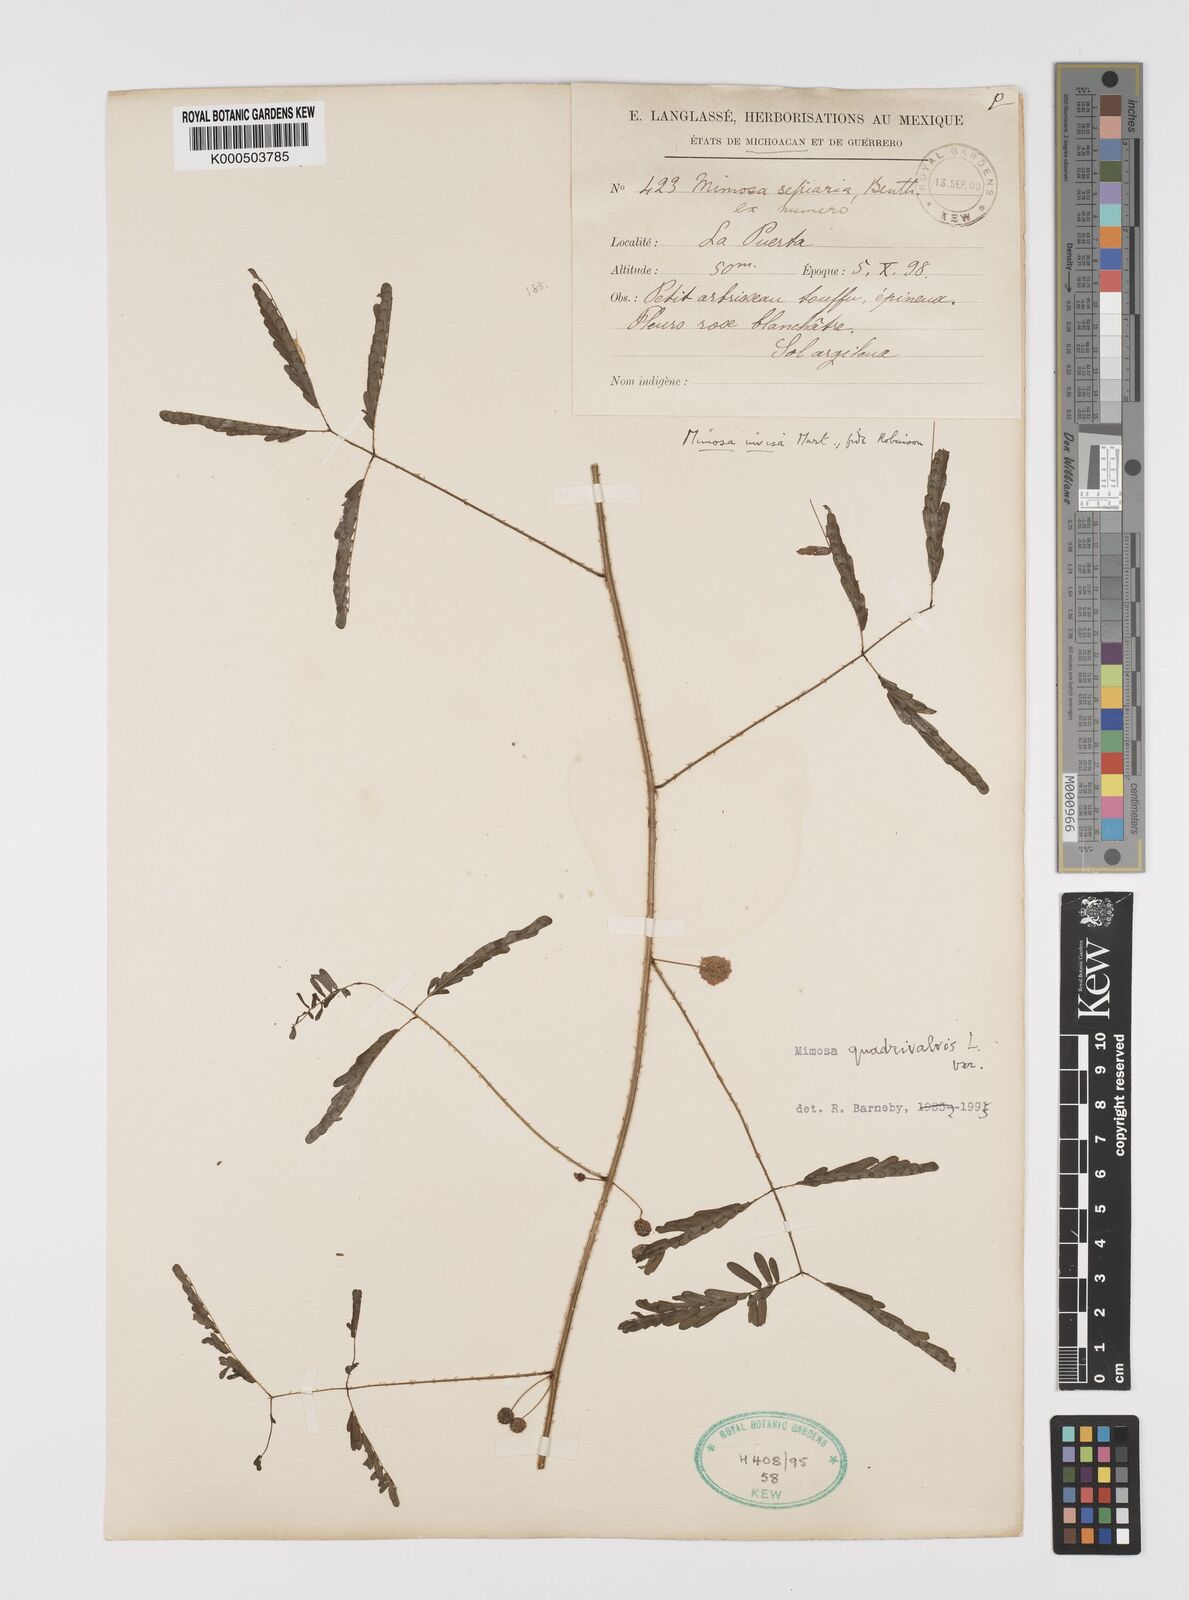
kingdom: Plantae
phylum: Tracheophyta
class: Magnoliopsida
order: Fabales
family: Fabaceae
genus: Mimosa
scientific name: Mimosa quadrivalvis
